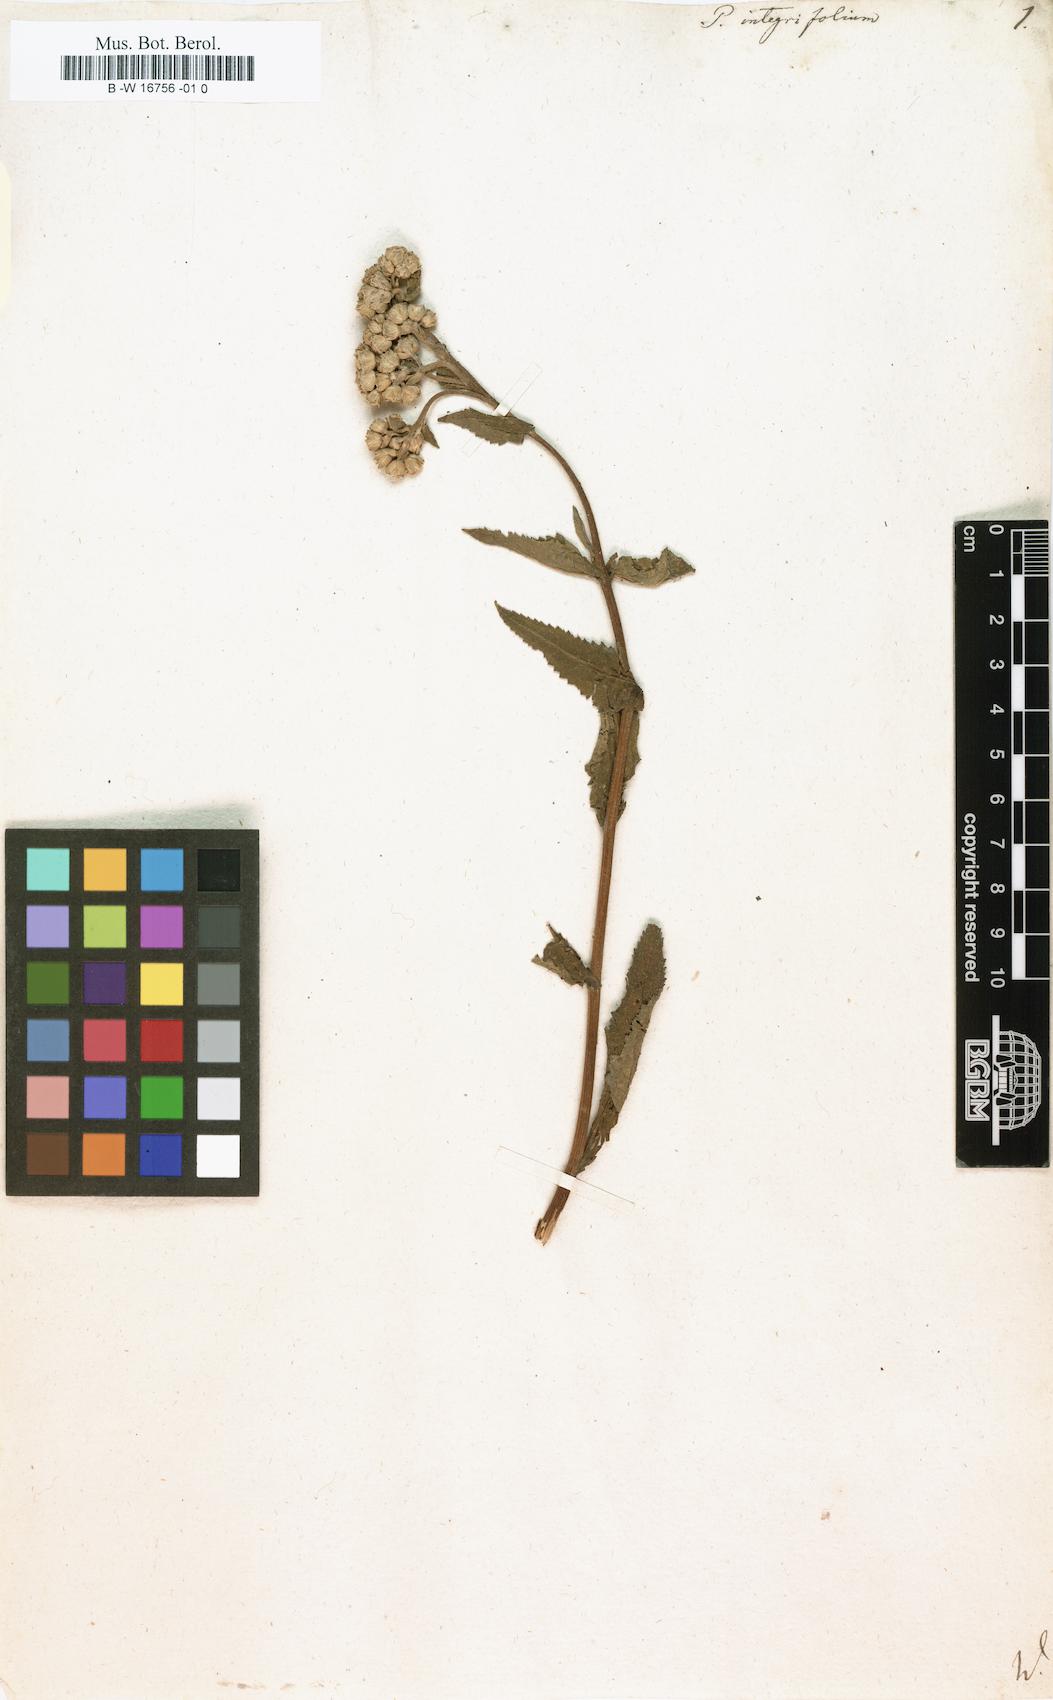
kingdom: Plantae
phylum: Tracheophyta
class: Magnoliopsida
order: Asterales
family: Asteraceae
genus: Parthenium
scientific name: Parthenium integrifolium
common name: American feverfew
